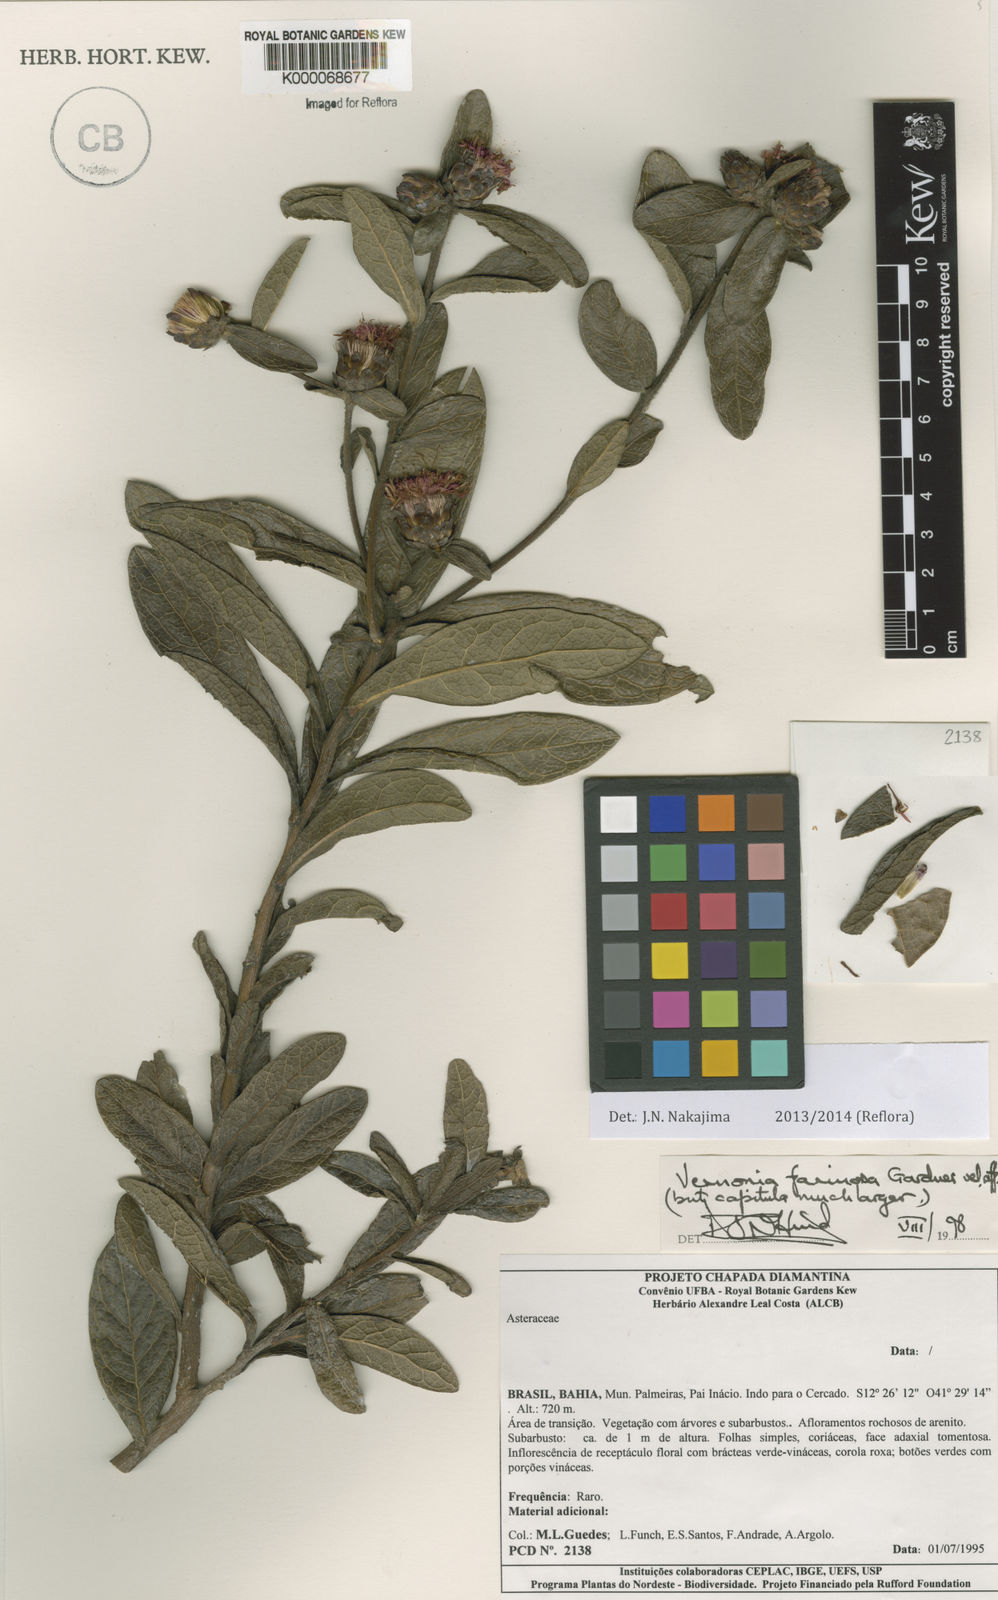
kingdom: Plantae
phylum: Tracheophyta
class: Magnoliopsida
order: Asterales
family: Asteraceae
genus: Lessingianthus
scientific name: Lessingianthus farinosus
